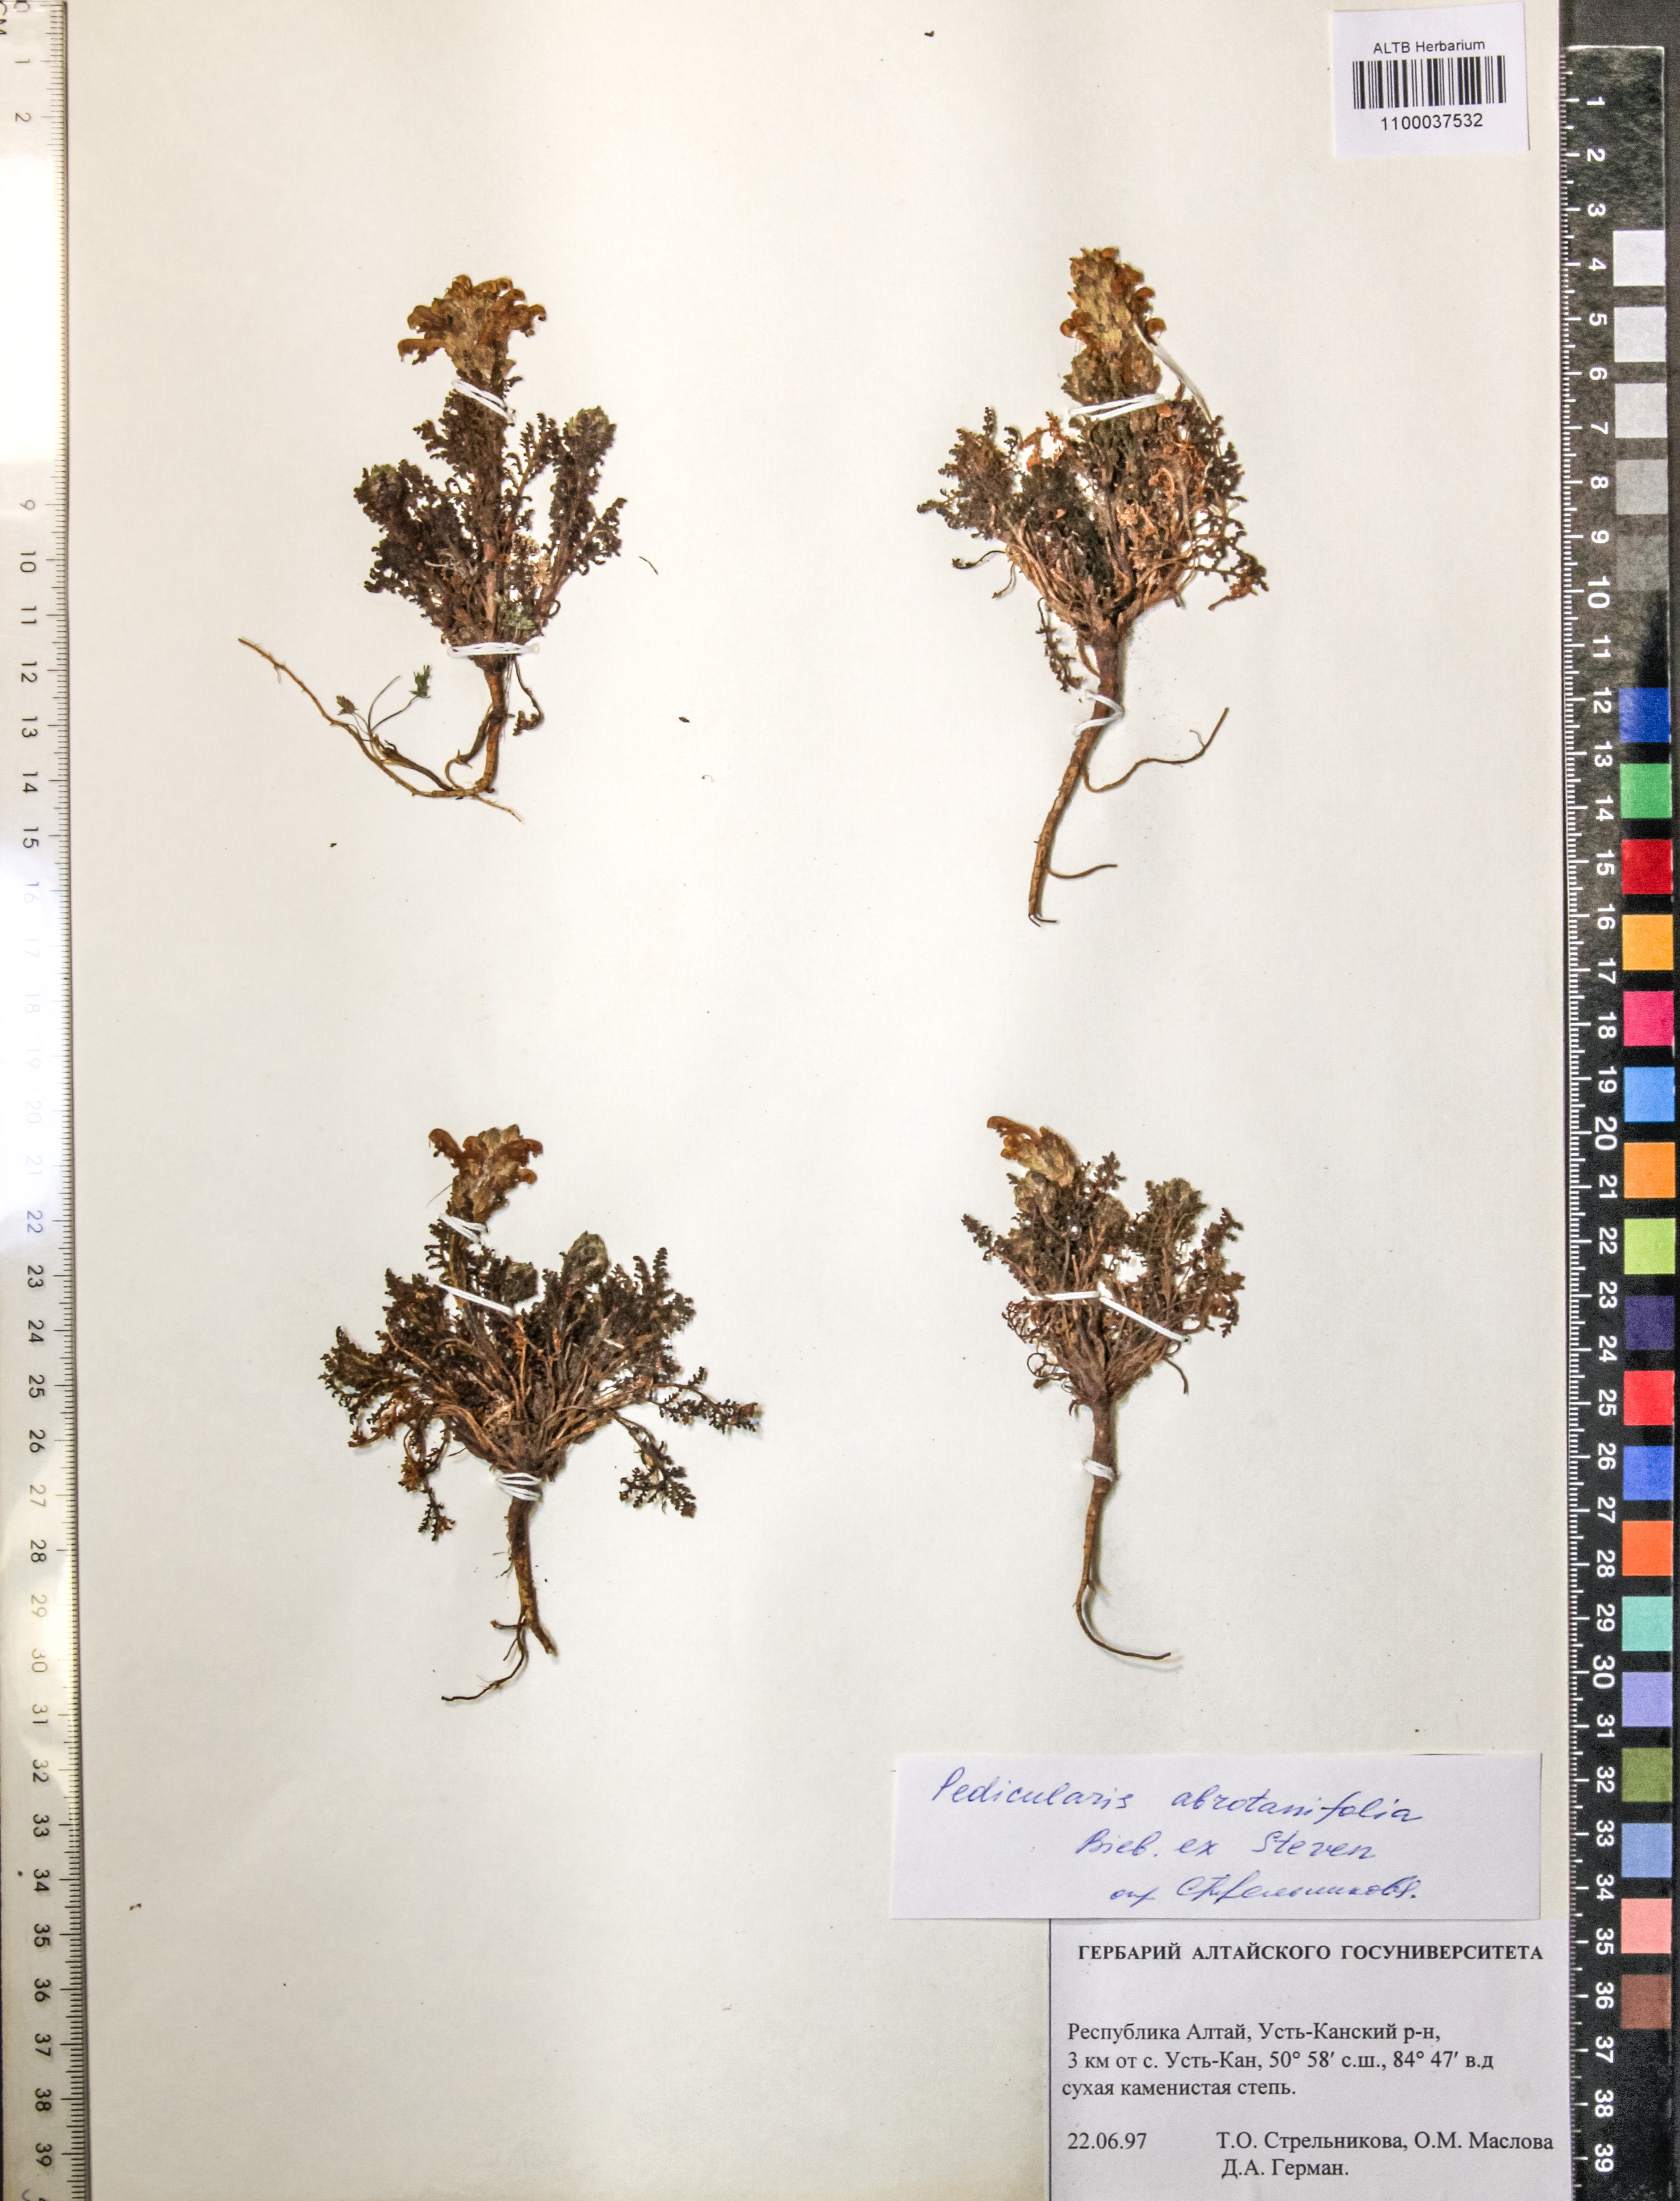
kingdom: Plantae
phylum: Tracheophyta
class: Magnoliopsida
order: Lamiales
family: Orobanchaceae
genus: Pedicularis
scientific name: Pedicularis abrotanifolia
